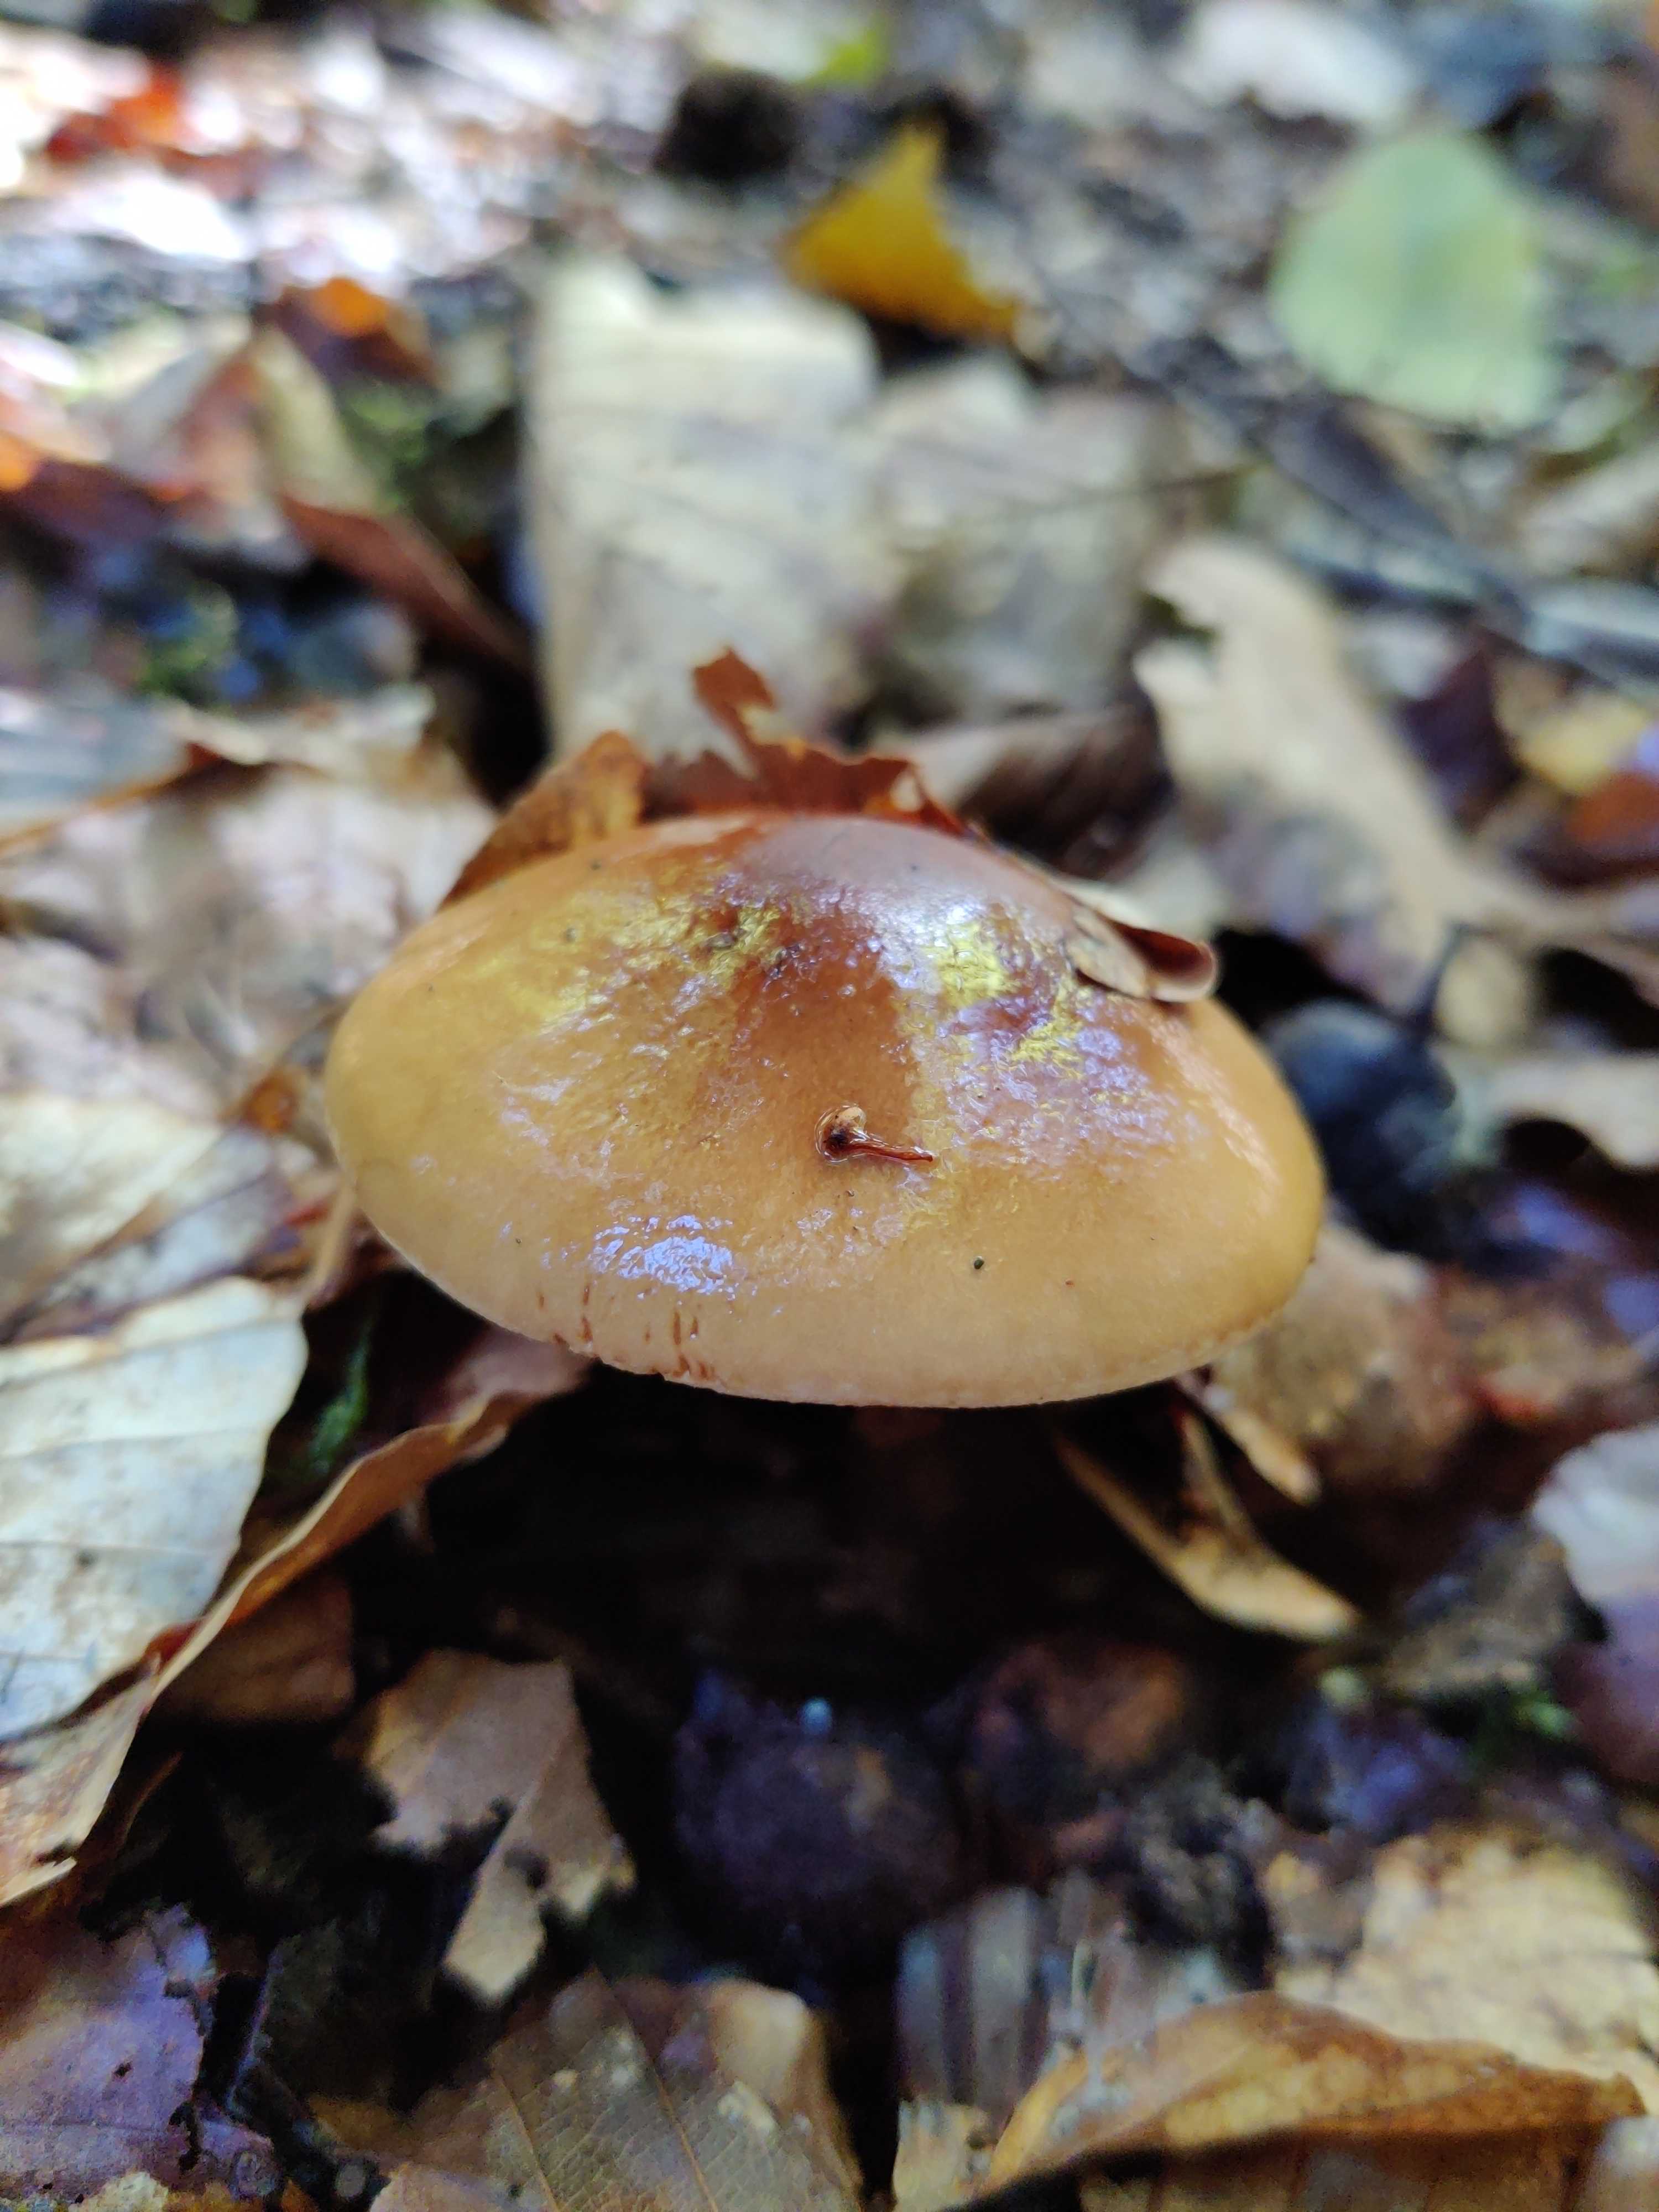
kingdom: Fungi
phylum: Basidiomycota
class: Agaricomycetes
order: Agaricales
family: Tricholomataceae
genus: Tricholoma
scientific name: Tricholoma ustale
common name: sveden ridderhat
